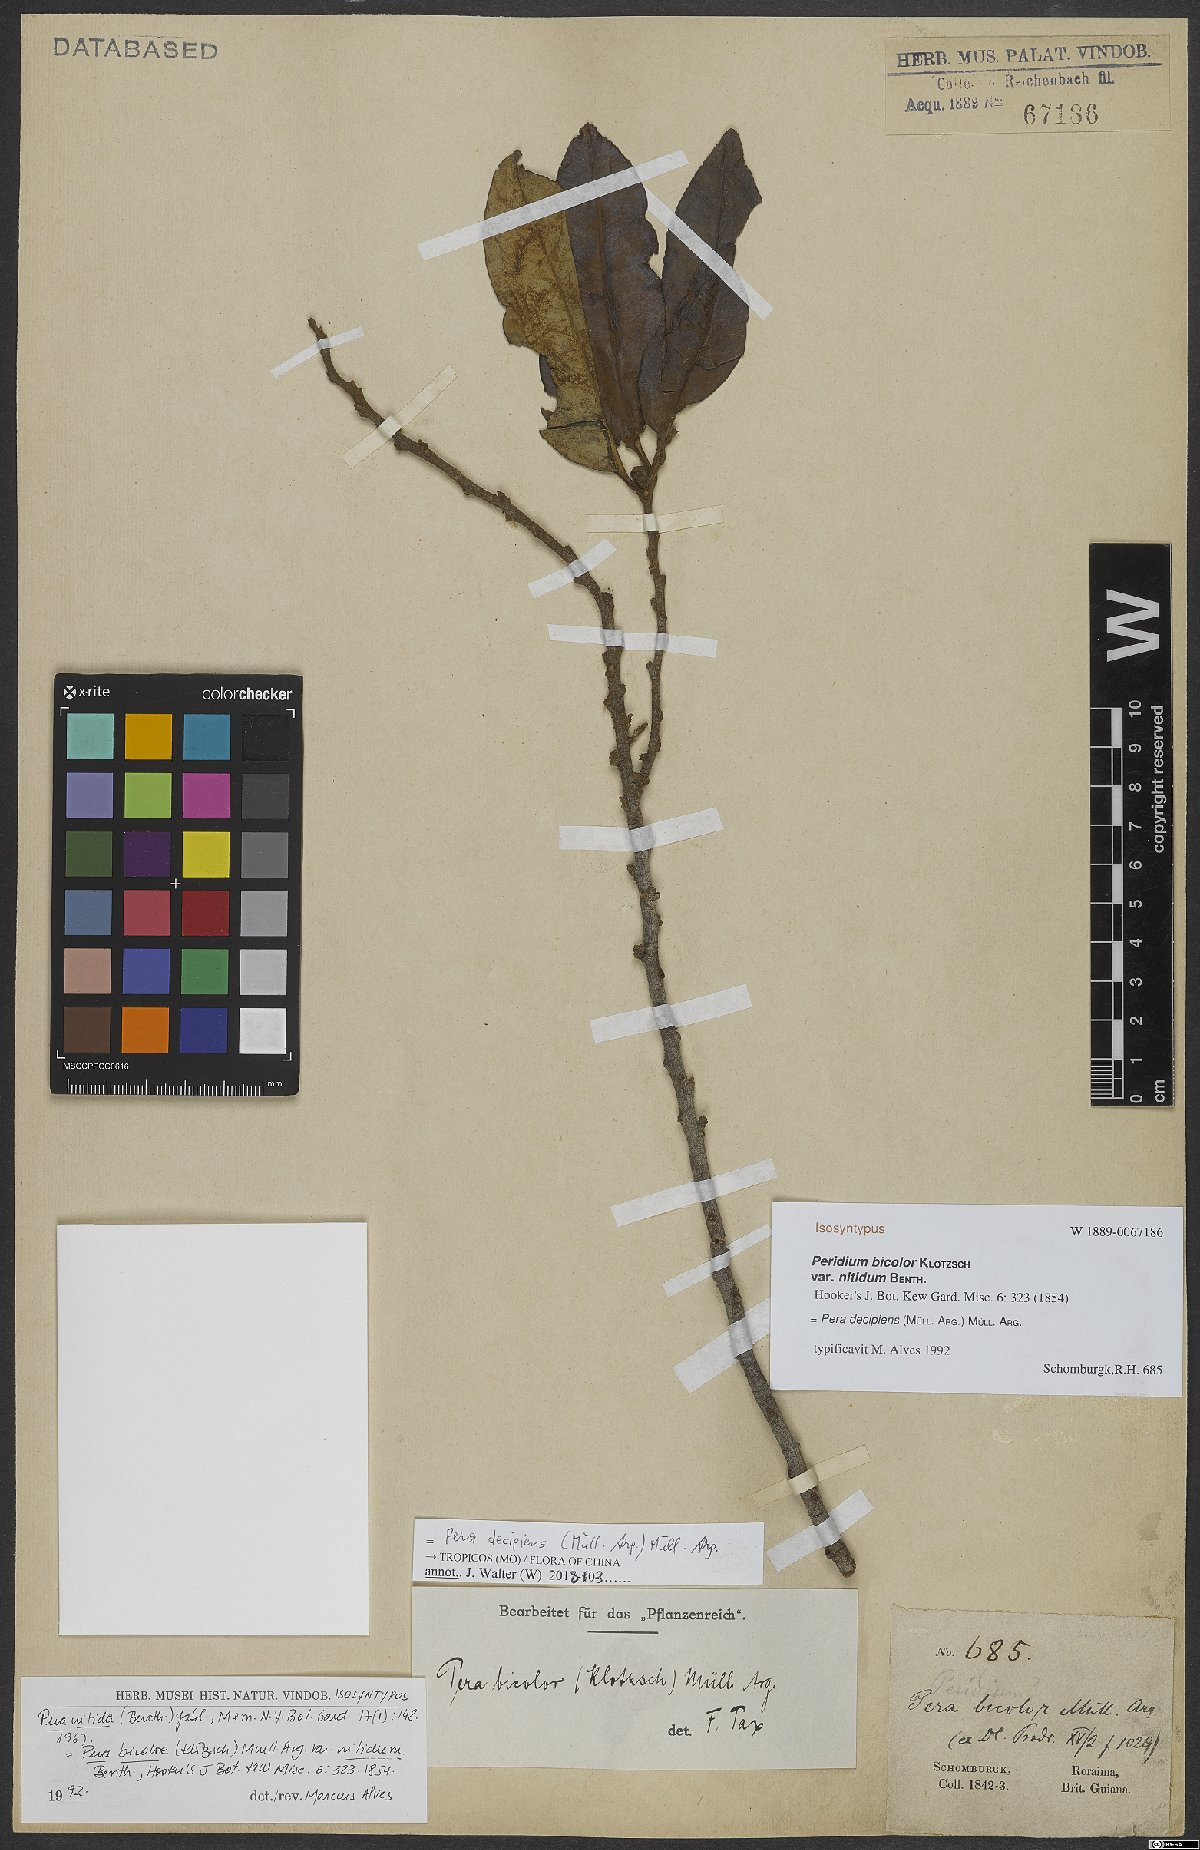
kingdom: Plantae
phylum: Tracheophyta
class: Magnoliopsida
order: Malpighiales
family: Peraceae
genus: Pera
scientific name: Pera decipiens
